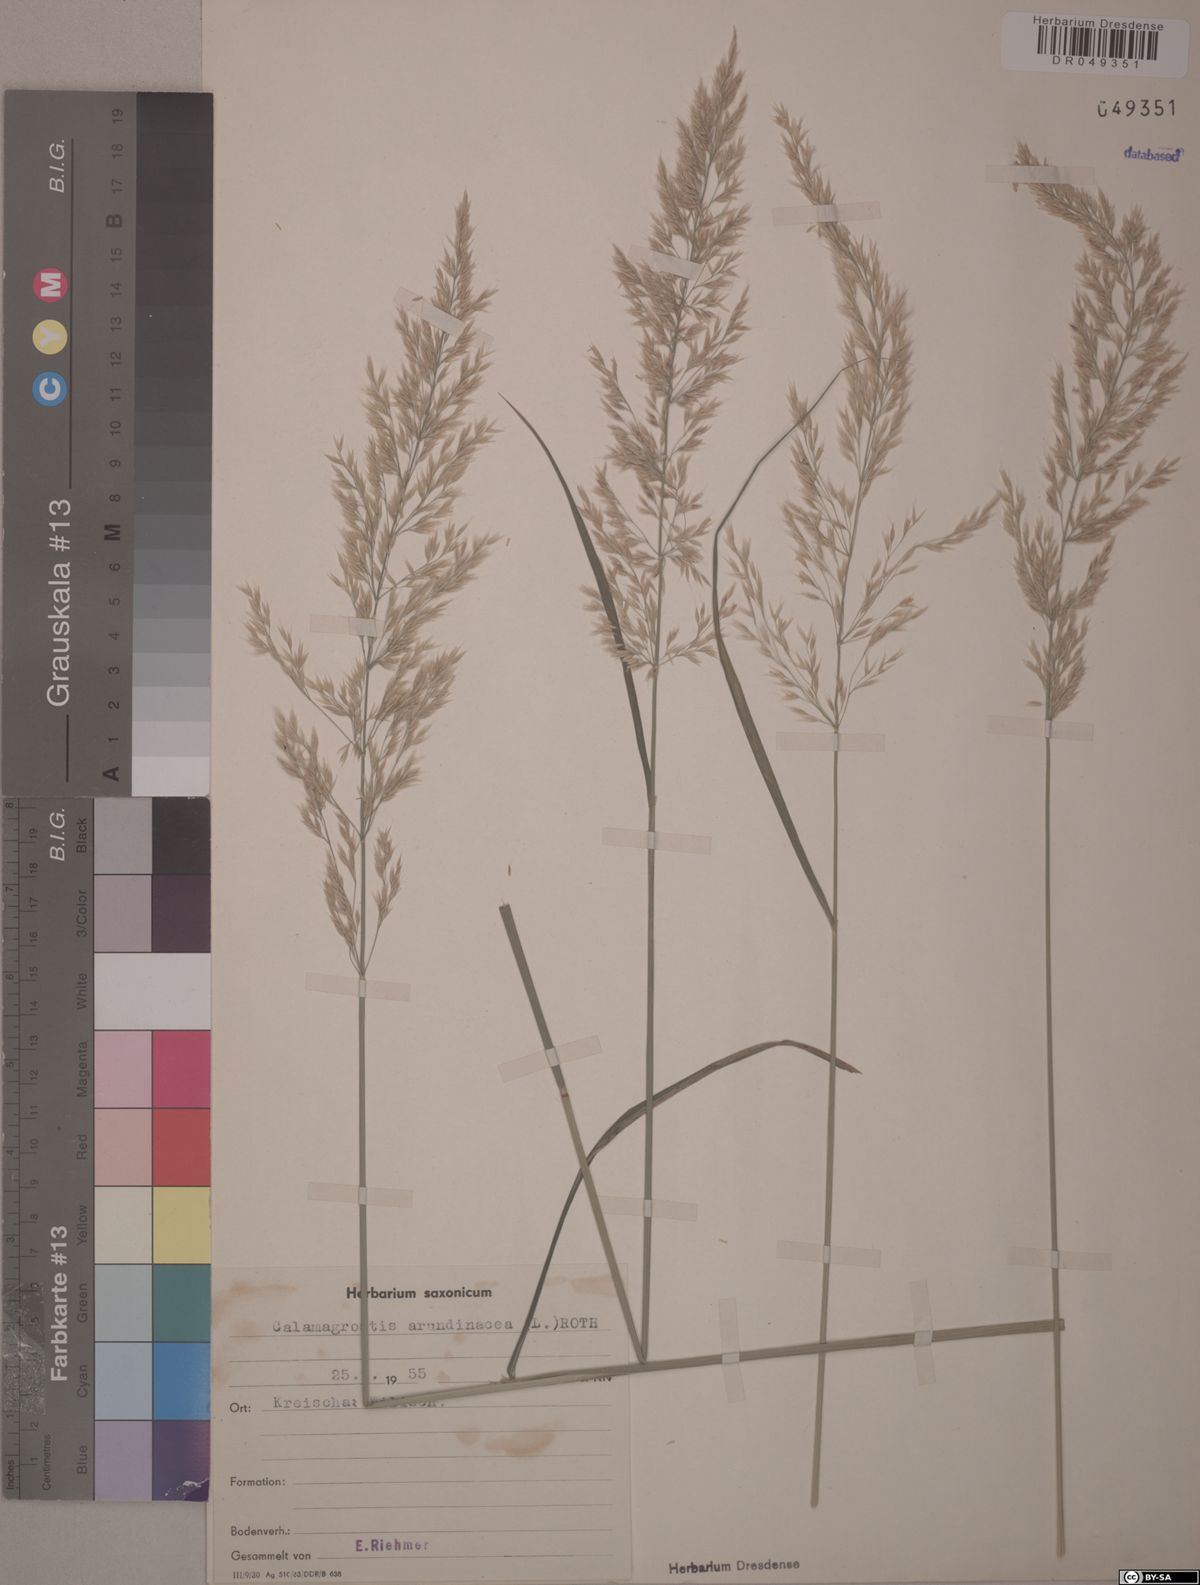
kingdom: Plantae
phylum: Tracheophyta
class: Liliopsida
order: Poales
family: Poaceae
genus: Calamagrostis
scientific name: Calamagrostis arundinacea
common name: Metskastik
